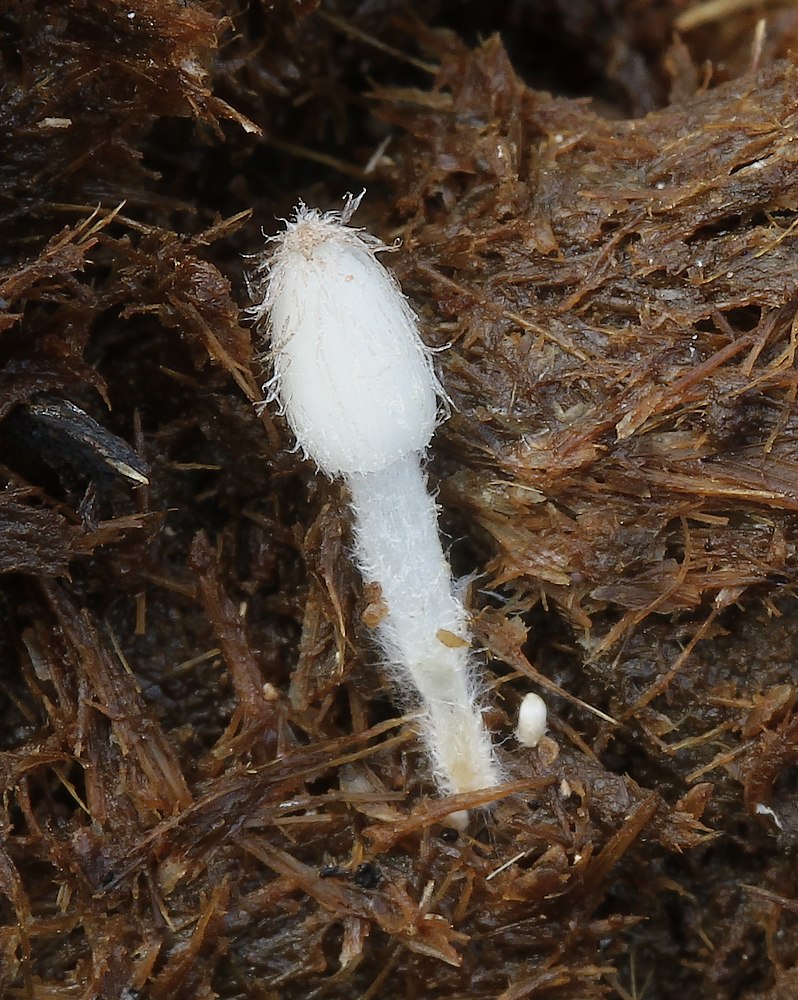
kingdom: Fungi
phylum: Basidiomycota
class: Agaricomycetes
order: Agaricales
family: Psathyrellaceae
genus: Coprinopsis
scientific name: Coprinopsis
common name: blækhat
